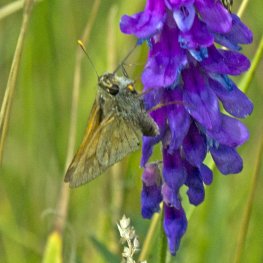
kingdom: Animalia
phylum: Arthropoda
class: Insecta
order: Lepidoptera
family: Hesperiidae
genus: Polites
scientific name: Polites
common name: Long Dash Skipper
